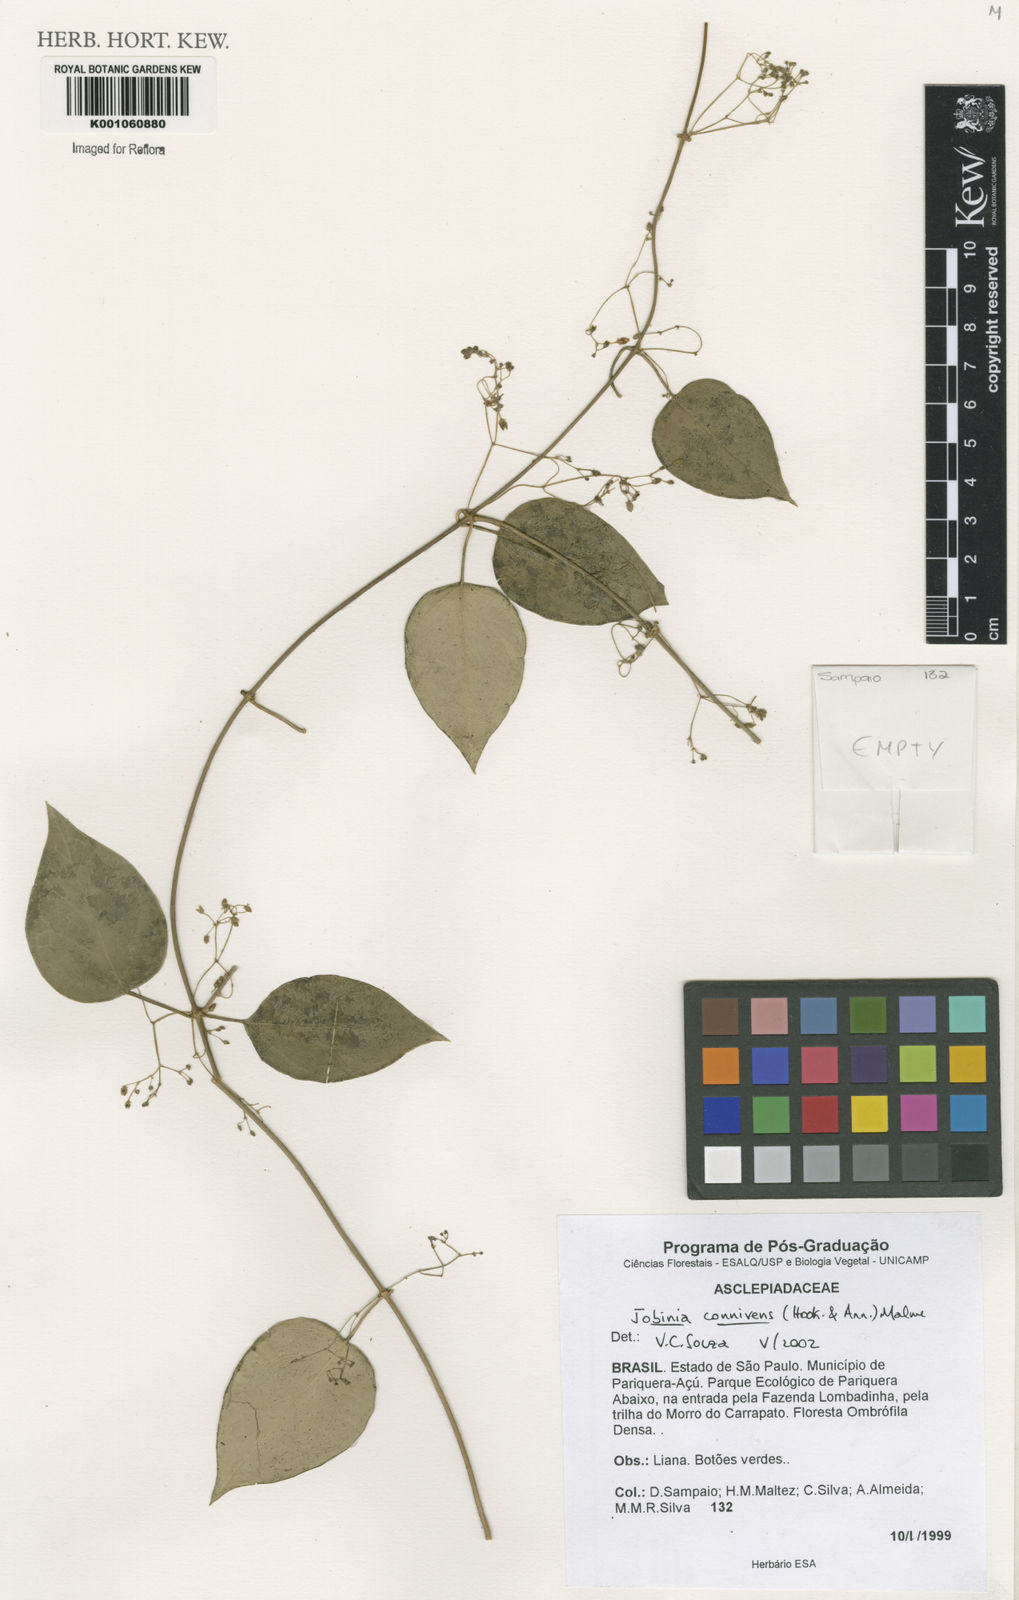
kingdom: Plantae
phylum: Tracheophyta
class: Magnoliopsida
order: Gentianales
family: Apocynaceae
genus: Jobinia
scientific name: Jobinia connivens
